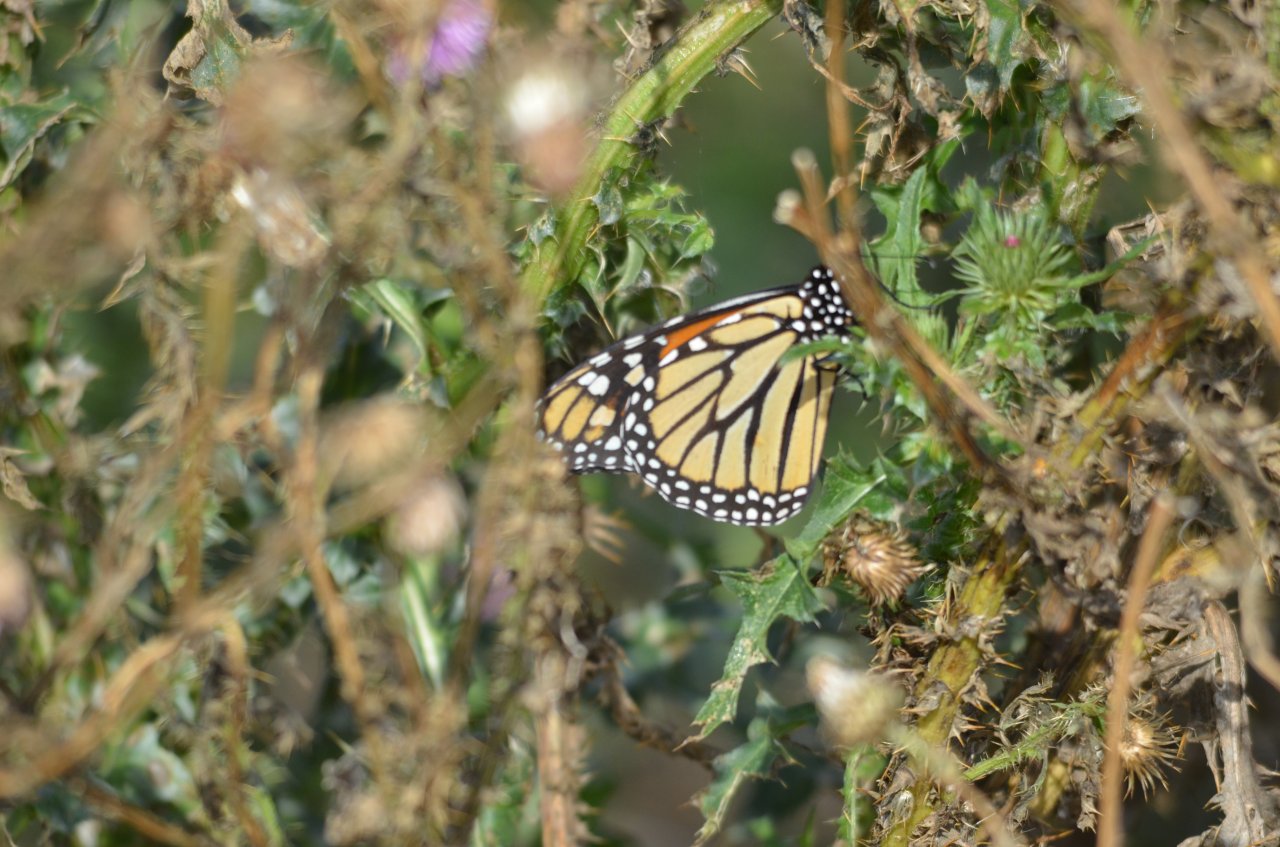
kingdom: Animalia
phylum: Arthropoda
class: Insecta
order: Lepidoptera
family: Nymphalidae
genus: Danaus
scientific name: Danaus plexippus
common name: Monarch
